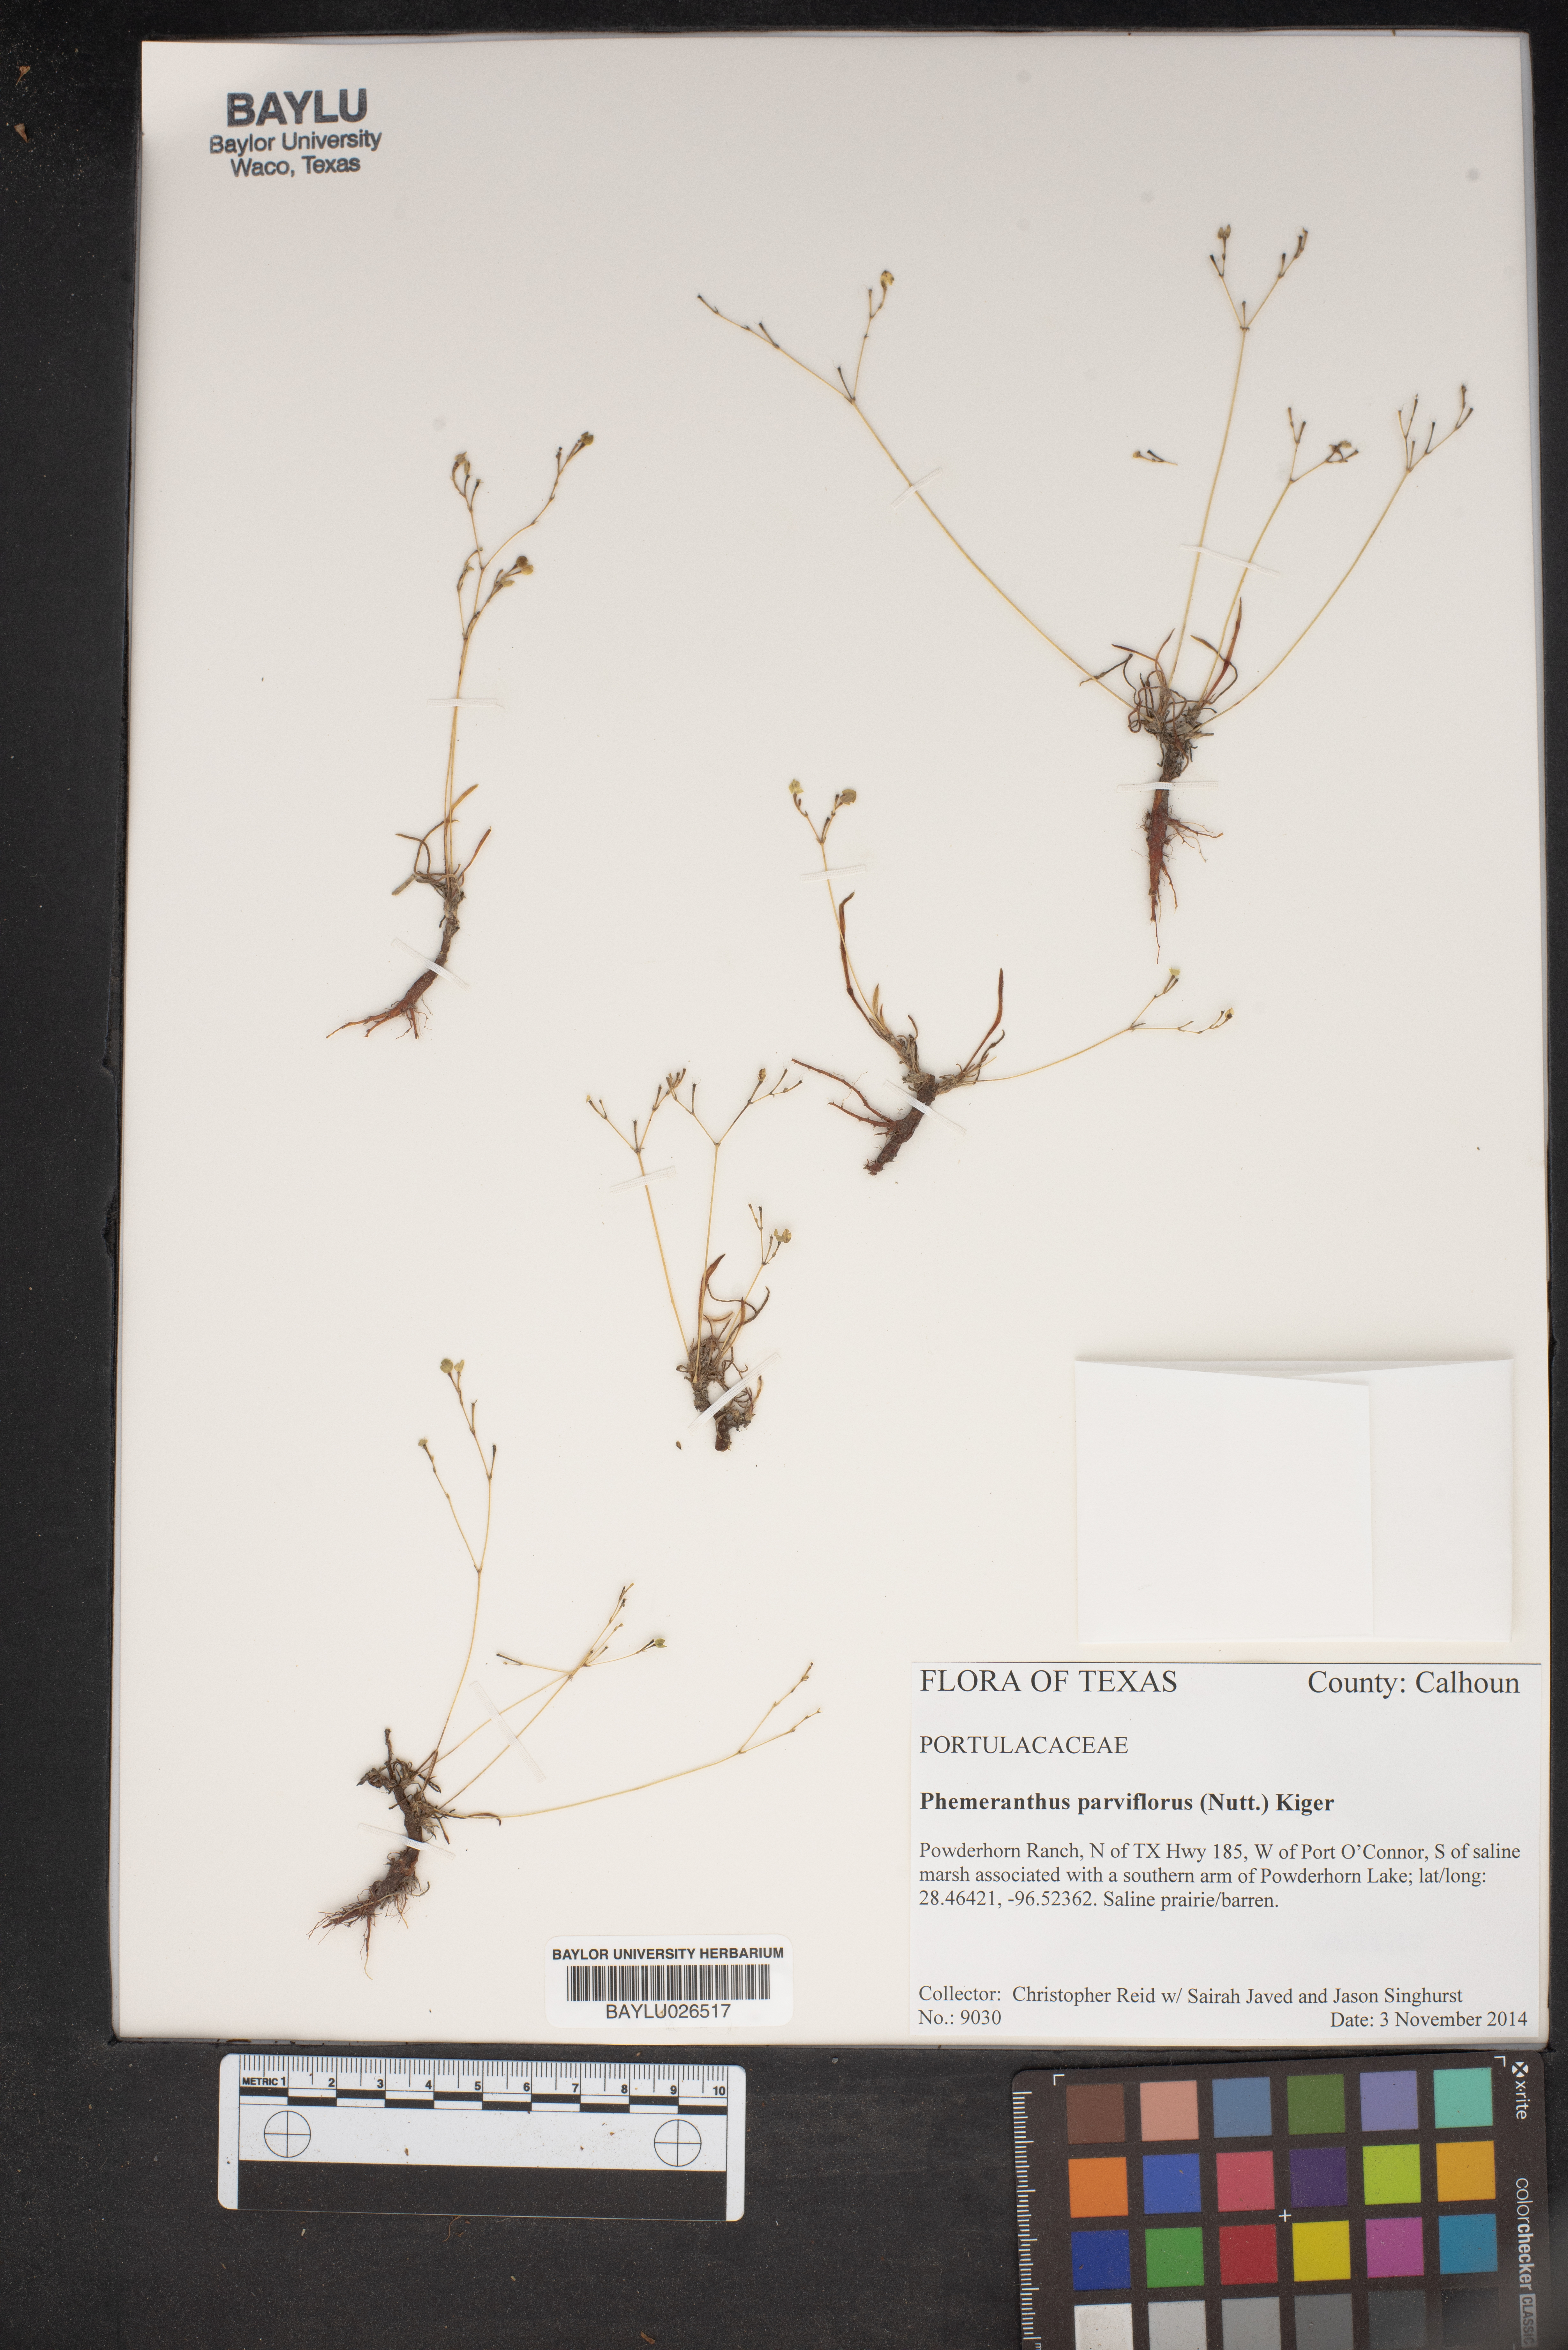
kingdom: Plantae
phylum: Tracheophyta
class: Magnoliopsida
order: Caryophyllales
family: Montiaceae
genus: Phemeranthus
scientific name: Phemeranthus parviflorus
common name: Sunbright
